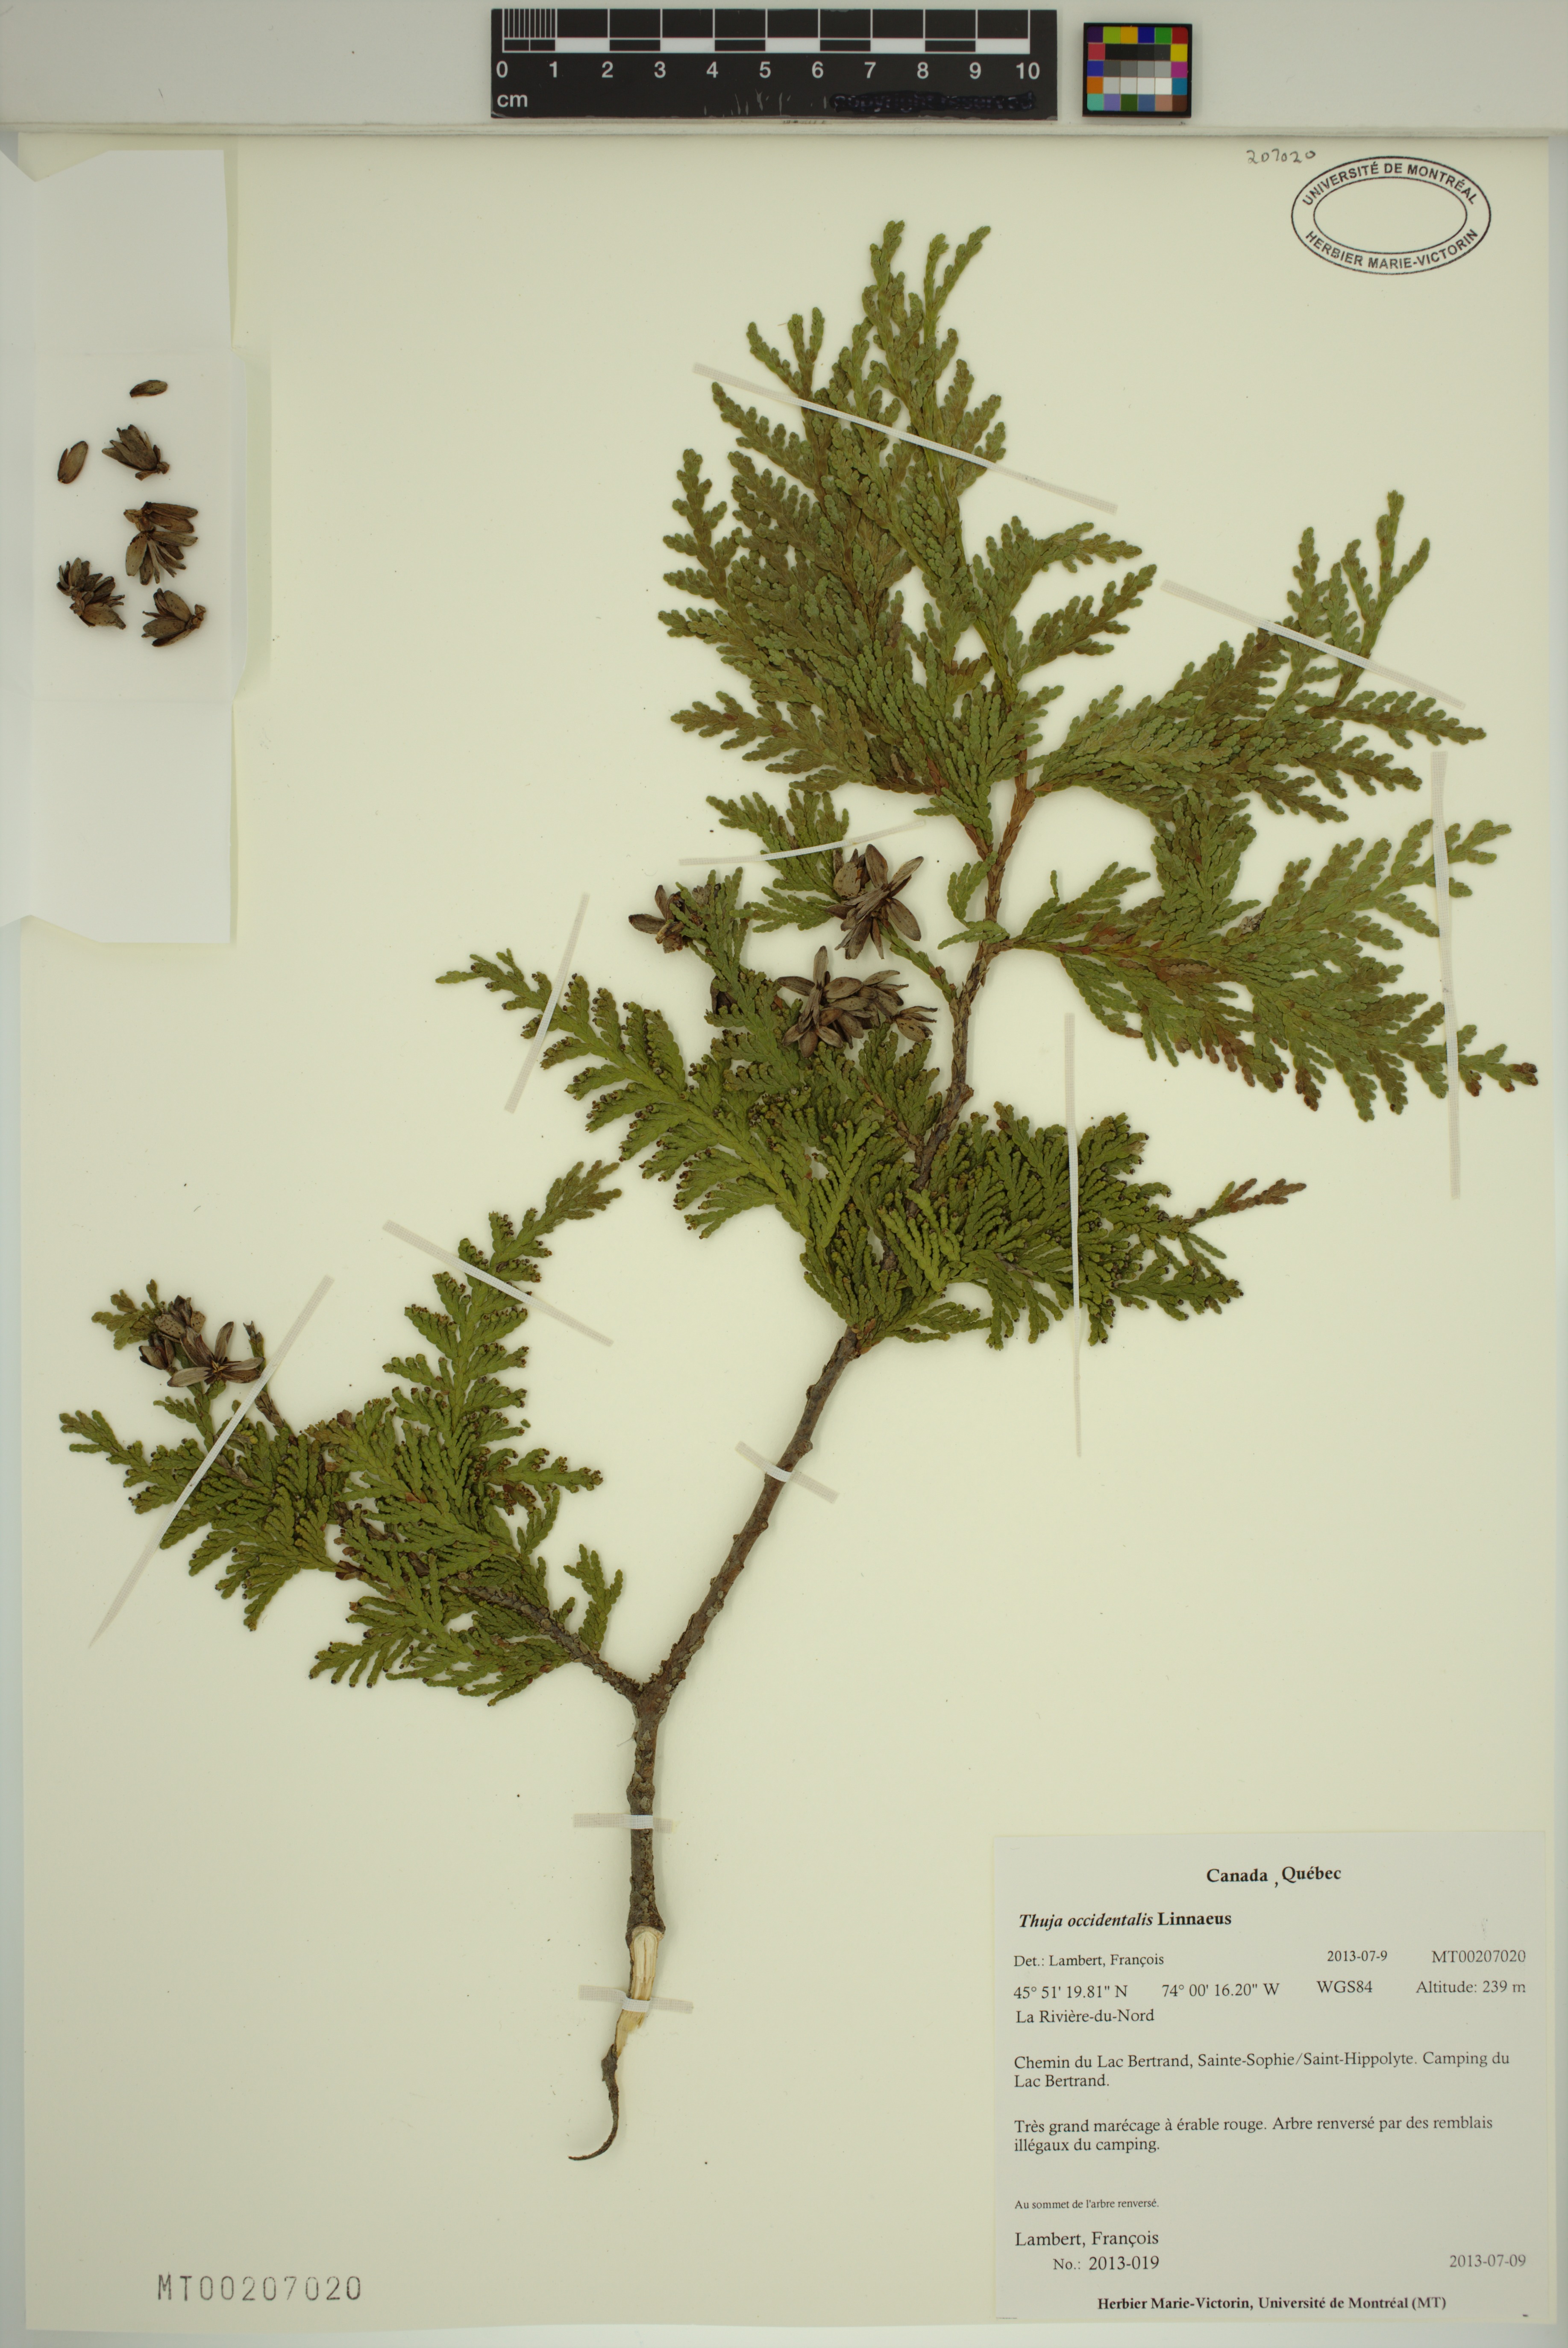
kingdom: Plantae
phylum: Tracheophyta
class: Pinopsida
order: Pinales
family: Cupressaceae
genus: Thuja
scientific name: Thuja occidentalis
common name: Northern white-cedar
